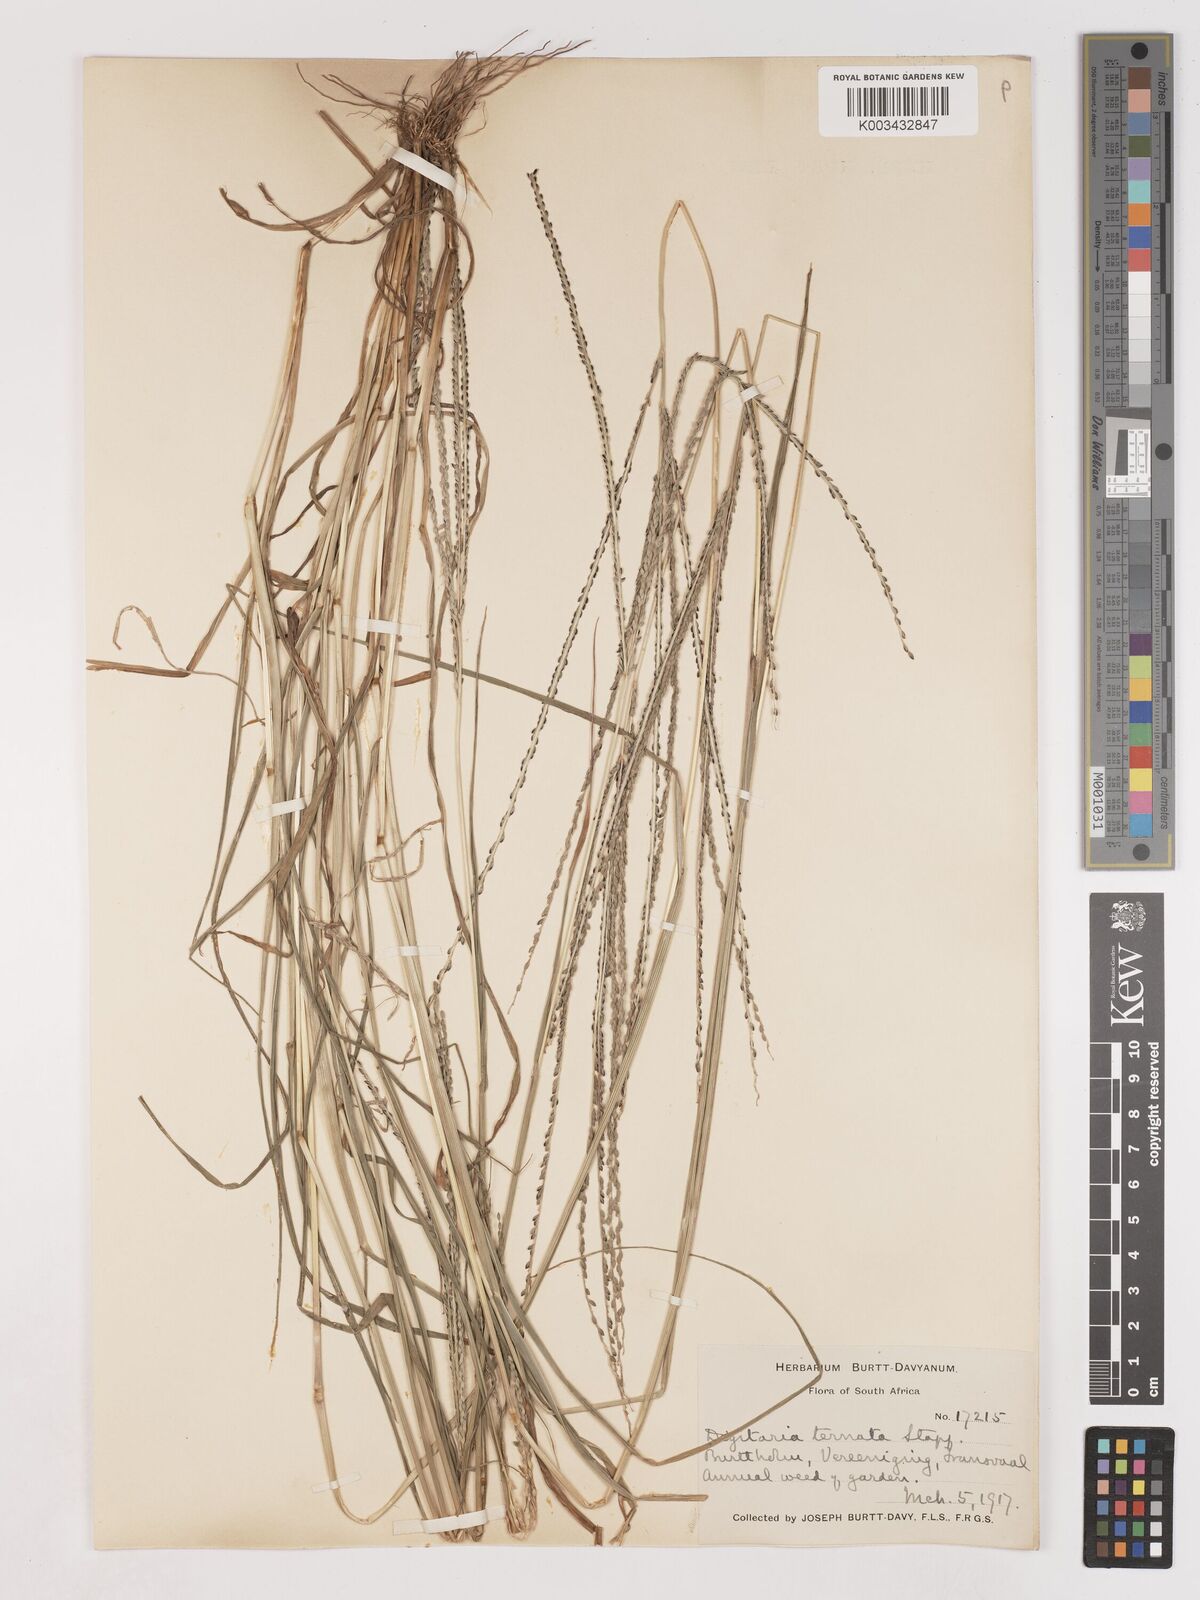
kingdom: Plantae
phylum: Tracheophyta
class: Liliopsida
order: Poales
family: Poaceae
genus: Digitaria
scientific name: Digitaria ternata
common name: Blackseed crabgrass
